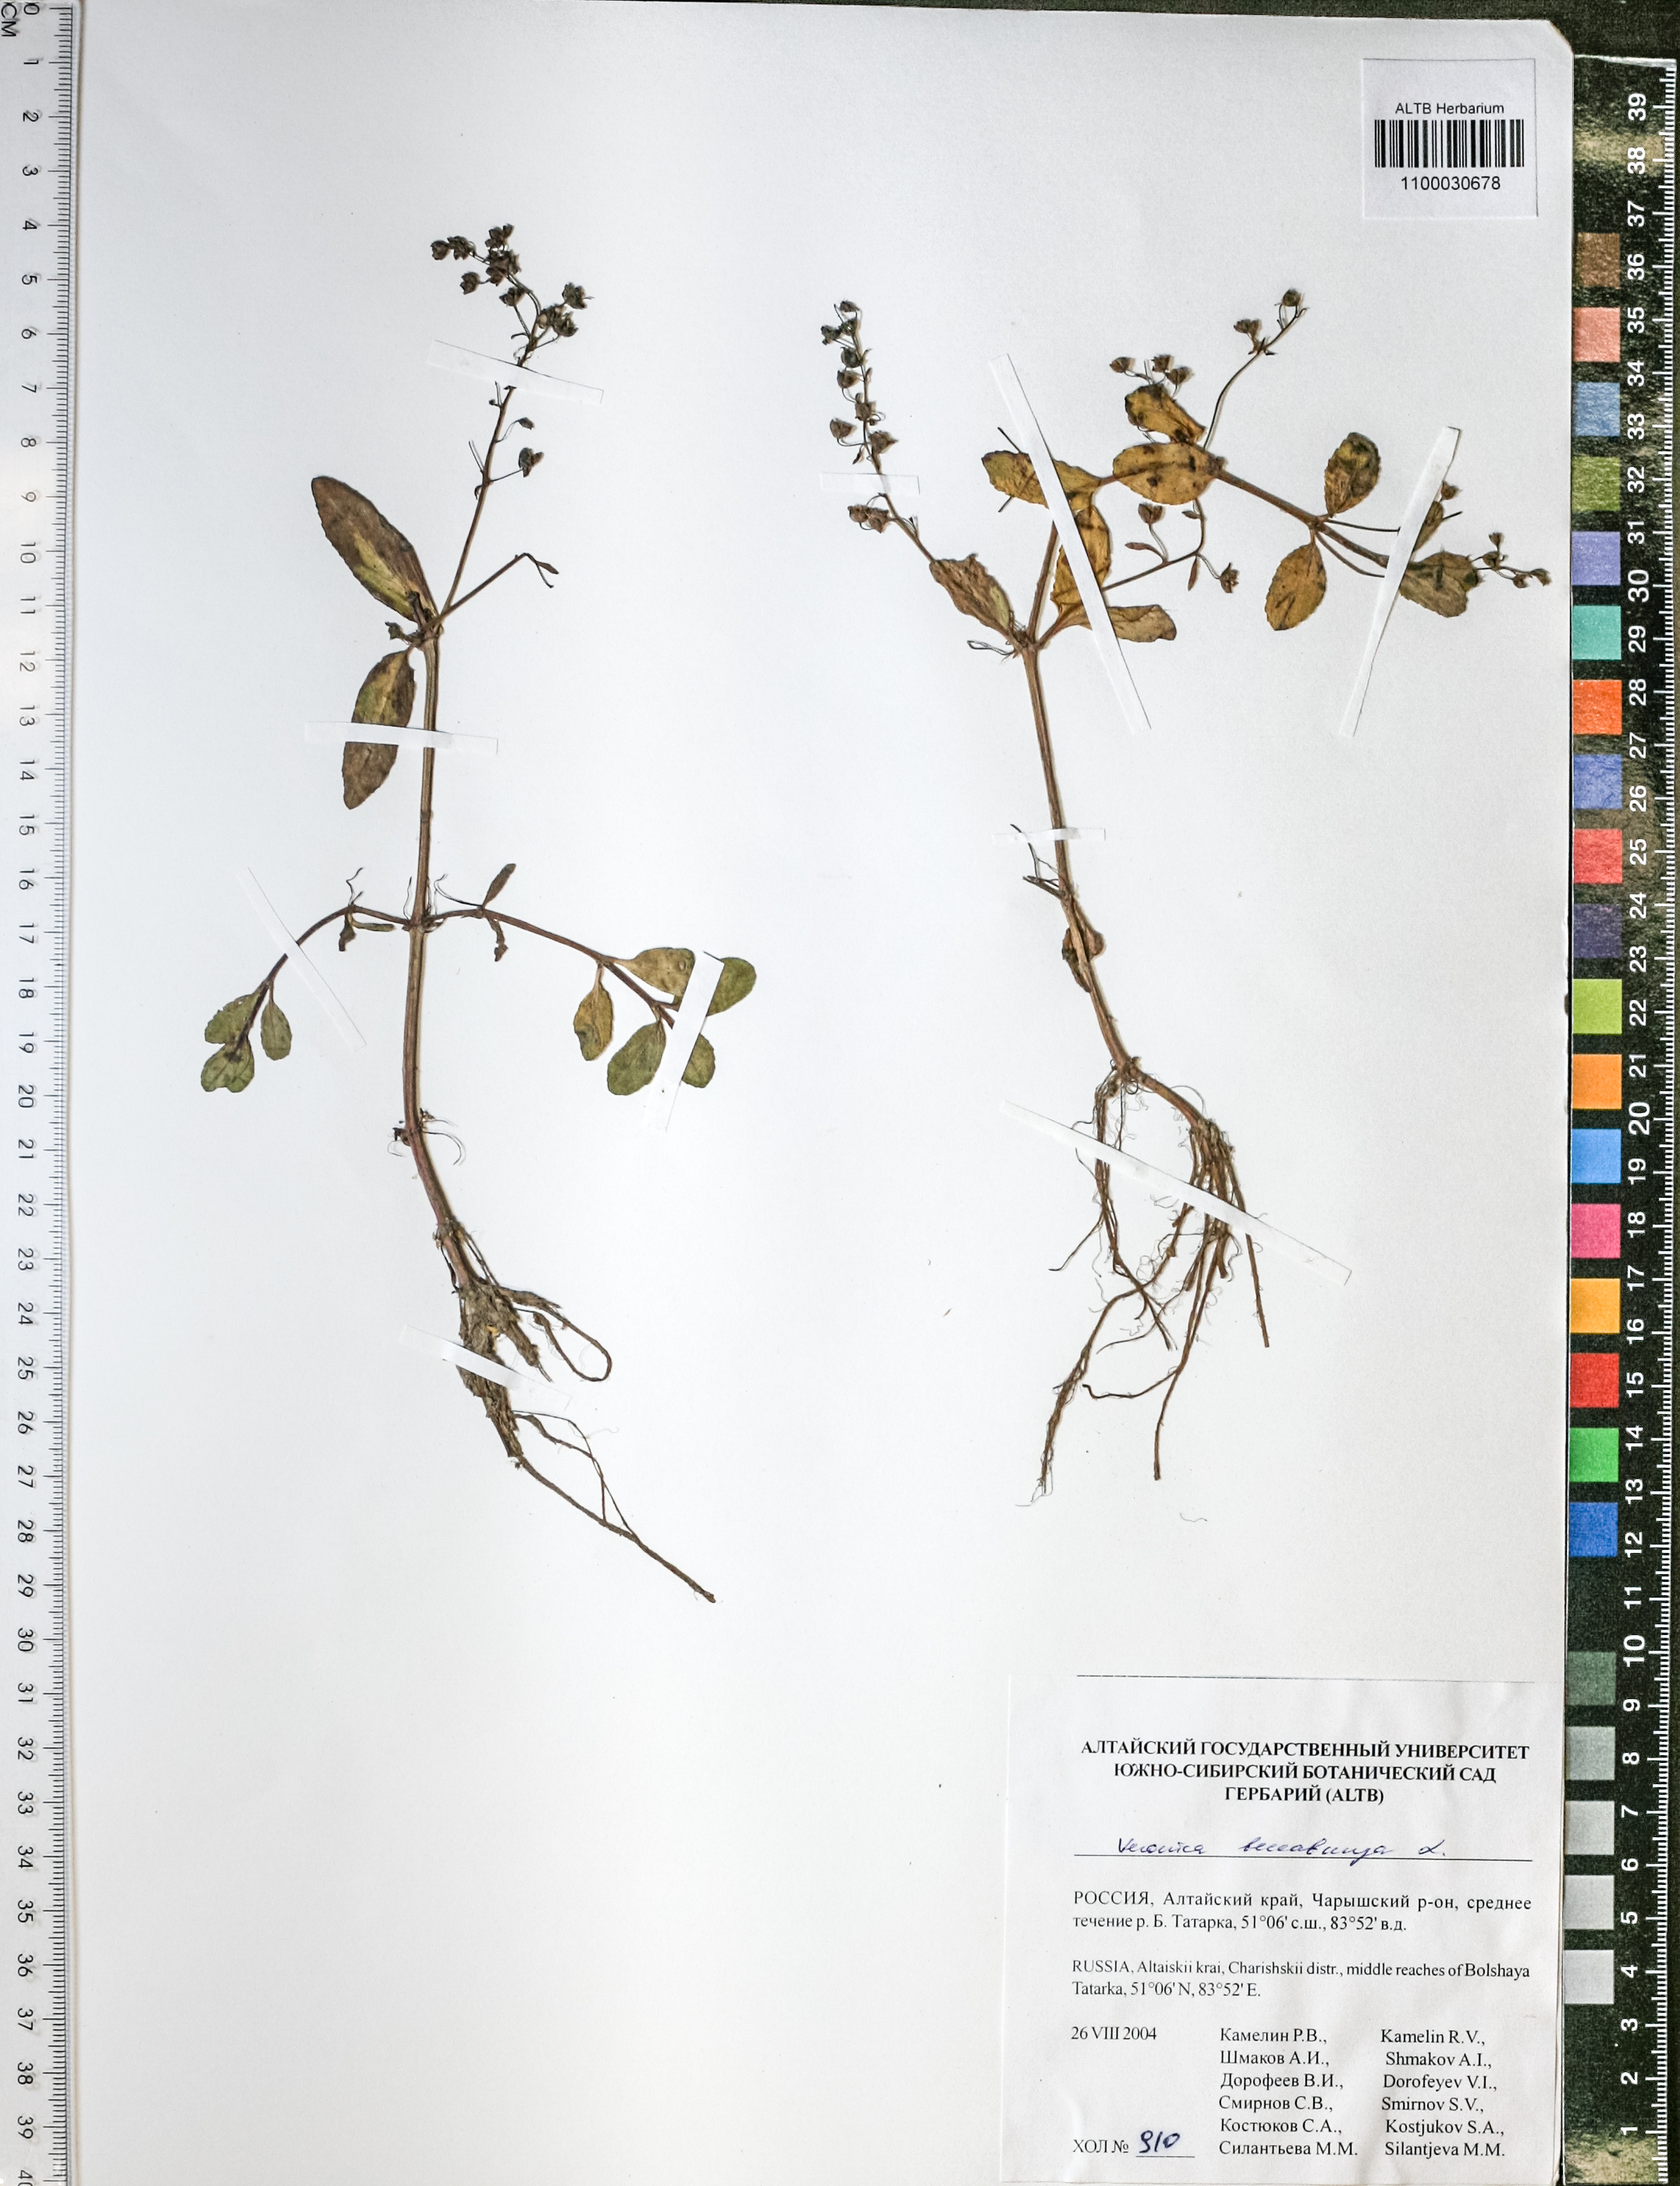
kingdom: Plantae
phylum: Tracheophyta
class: Magnoliopsida
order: Lamiales
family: Plantaginaceae
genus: Veronica
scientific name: Veronica beccabunga
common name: Brooklime
